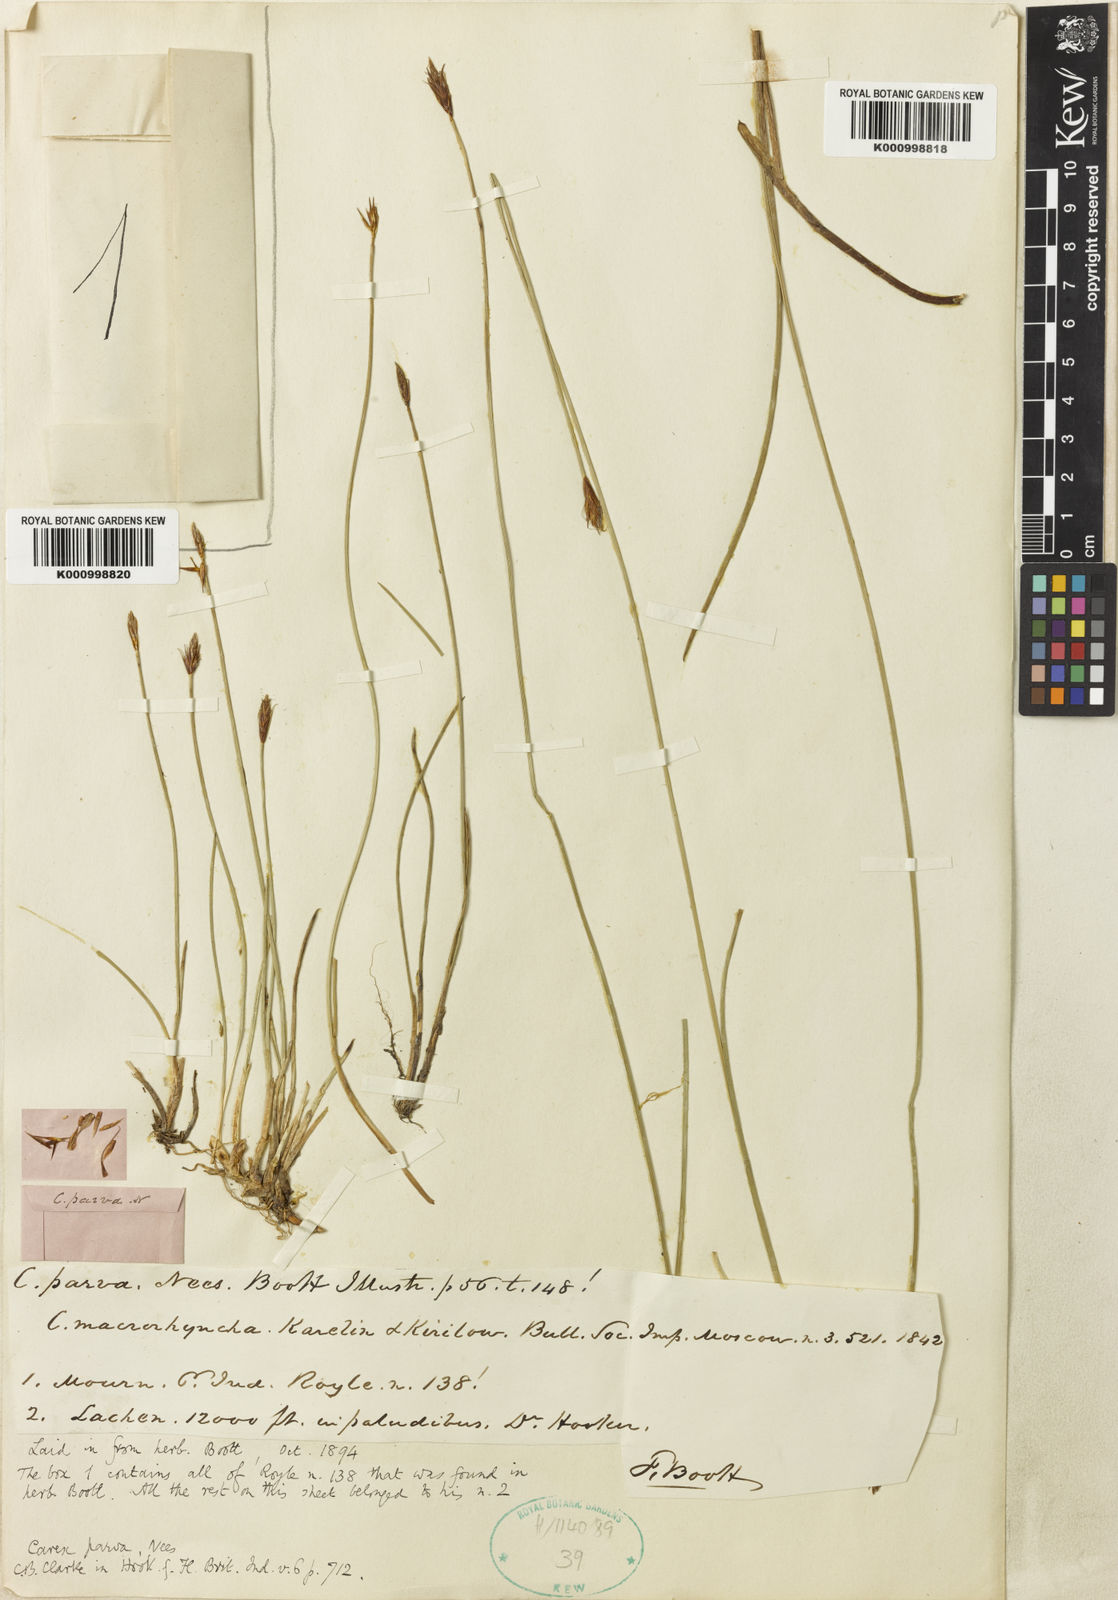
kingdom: Plantae
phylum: Tracheophyta
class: Liliopsida
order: Poales
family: Cyperaceae
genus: Carex
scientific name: Carex parva
